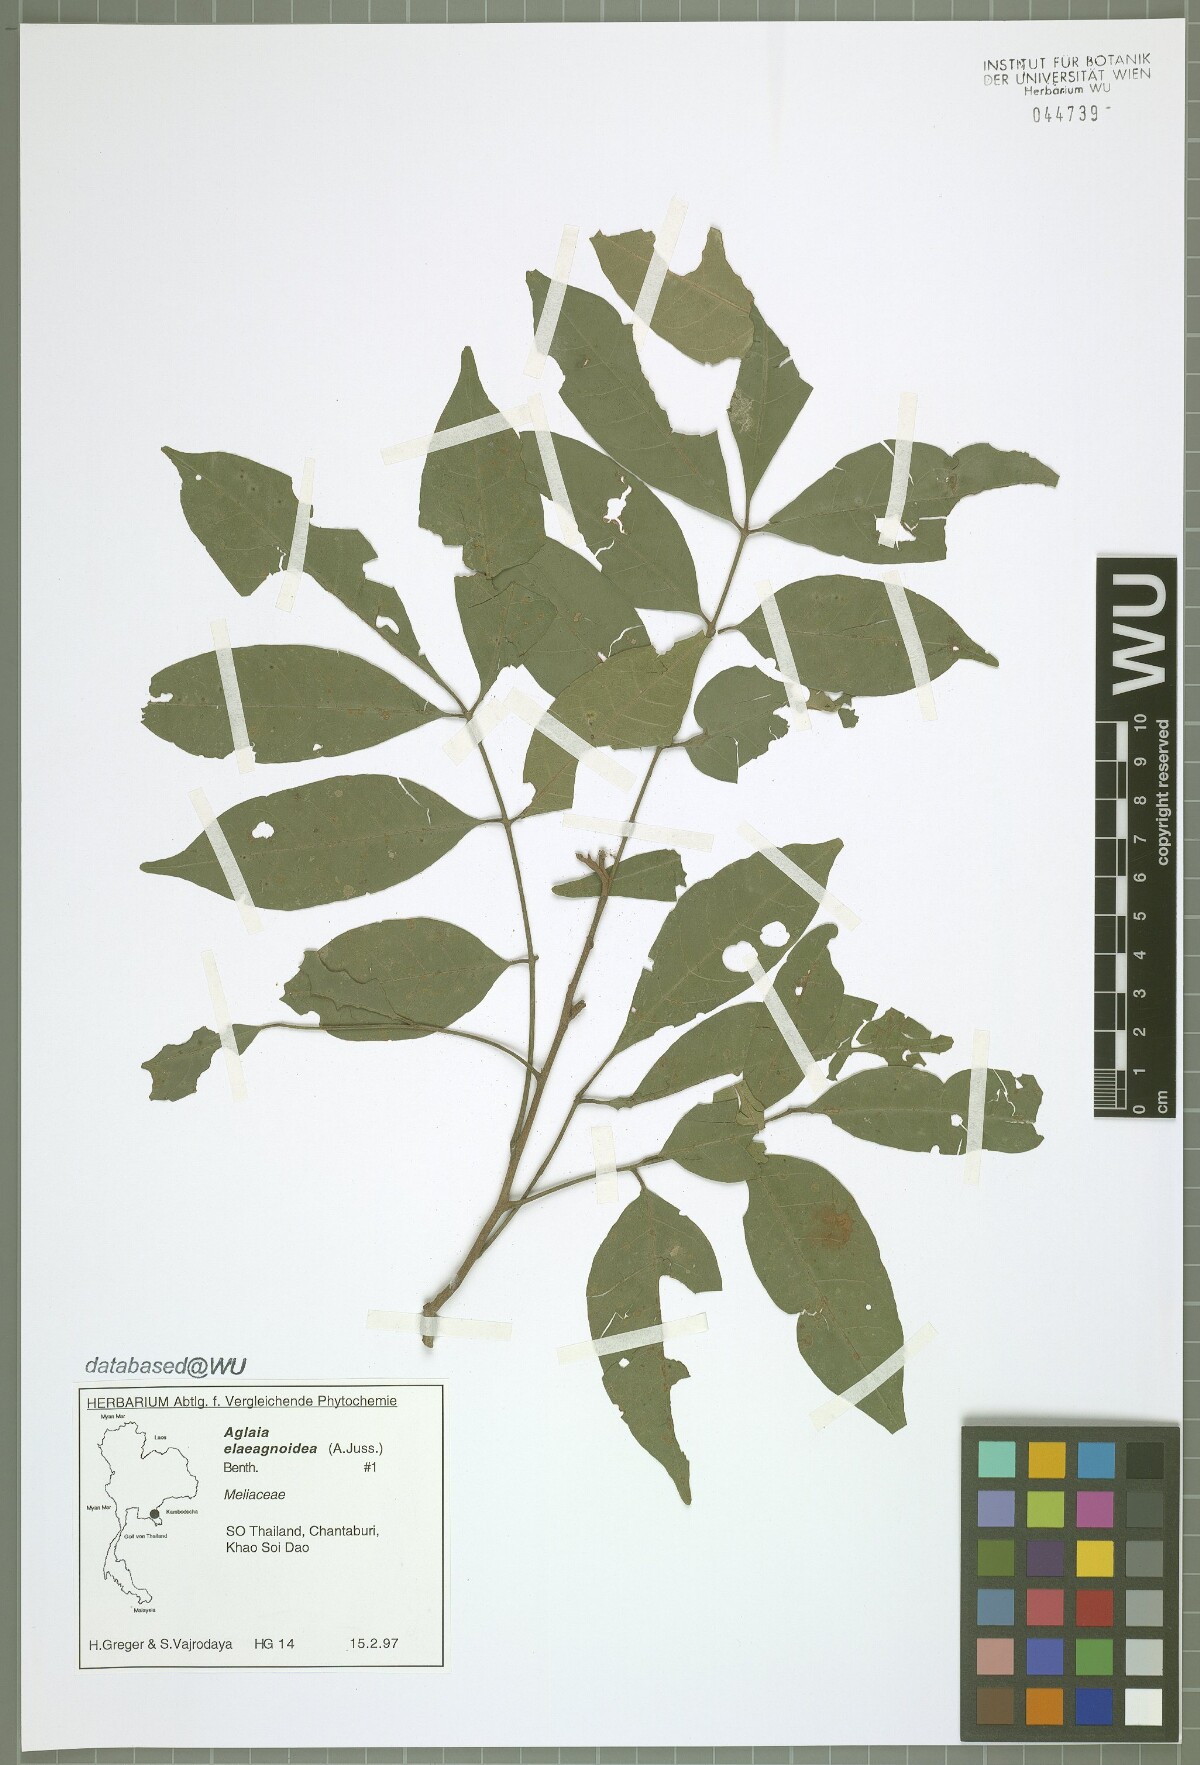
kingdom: Plantae
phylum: Tracheophyta
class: Magnoliopsida
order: Sapindales
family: Meliaceae
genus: Aglaia
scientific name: Aglaia elaeagnoidea
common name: Droopyleaf
